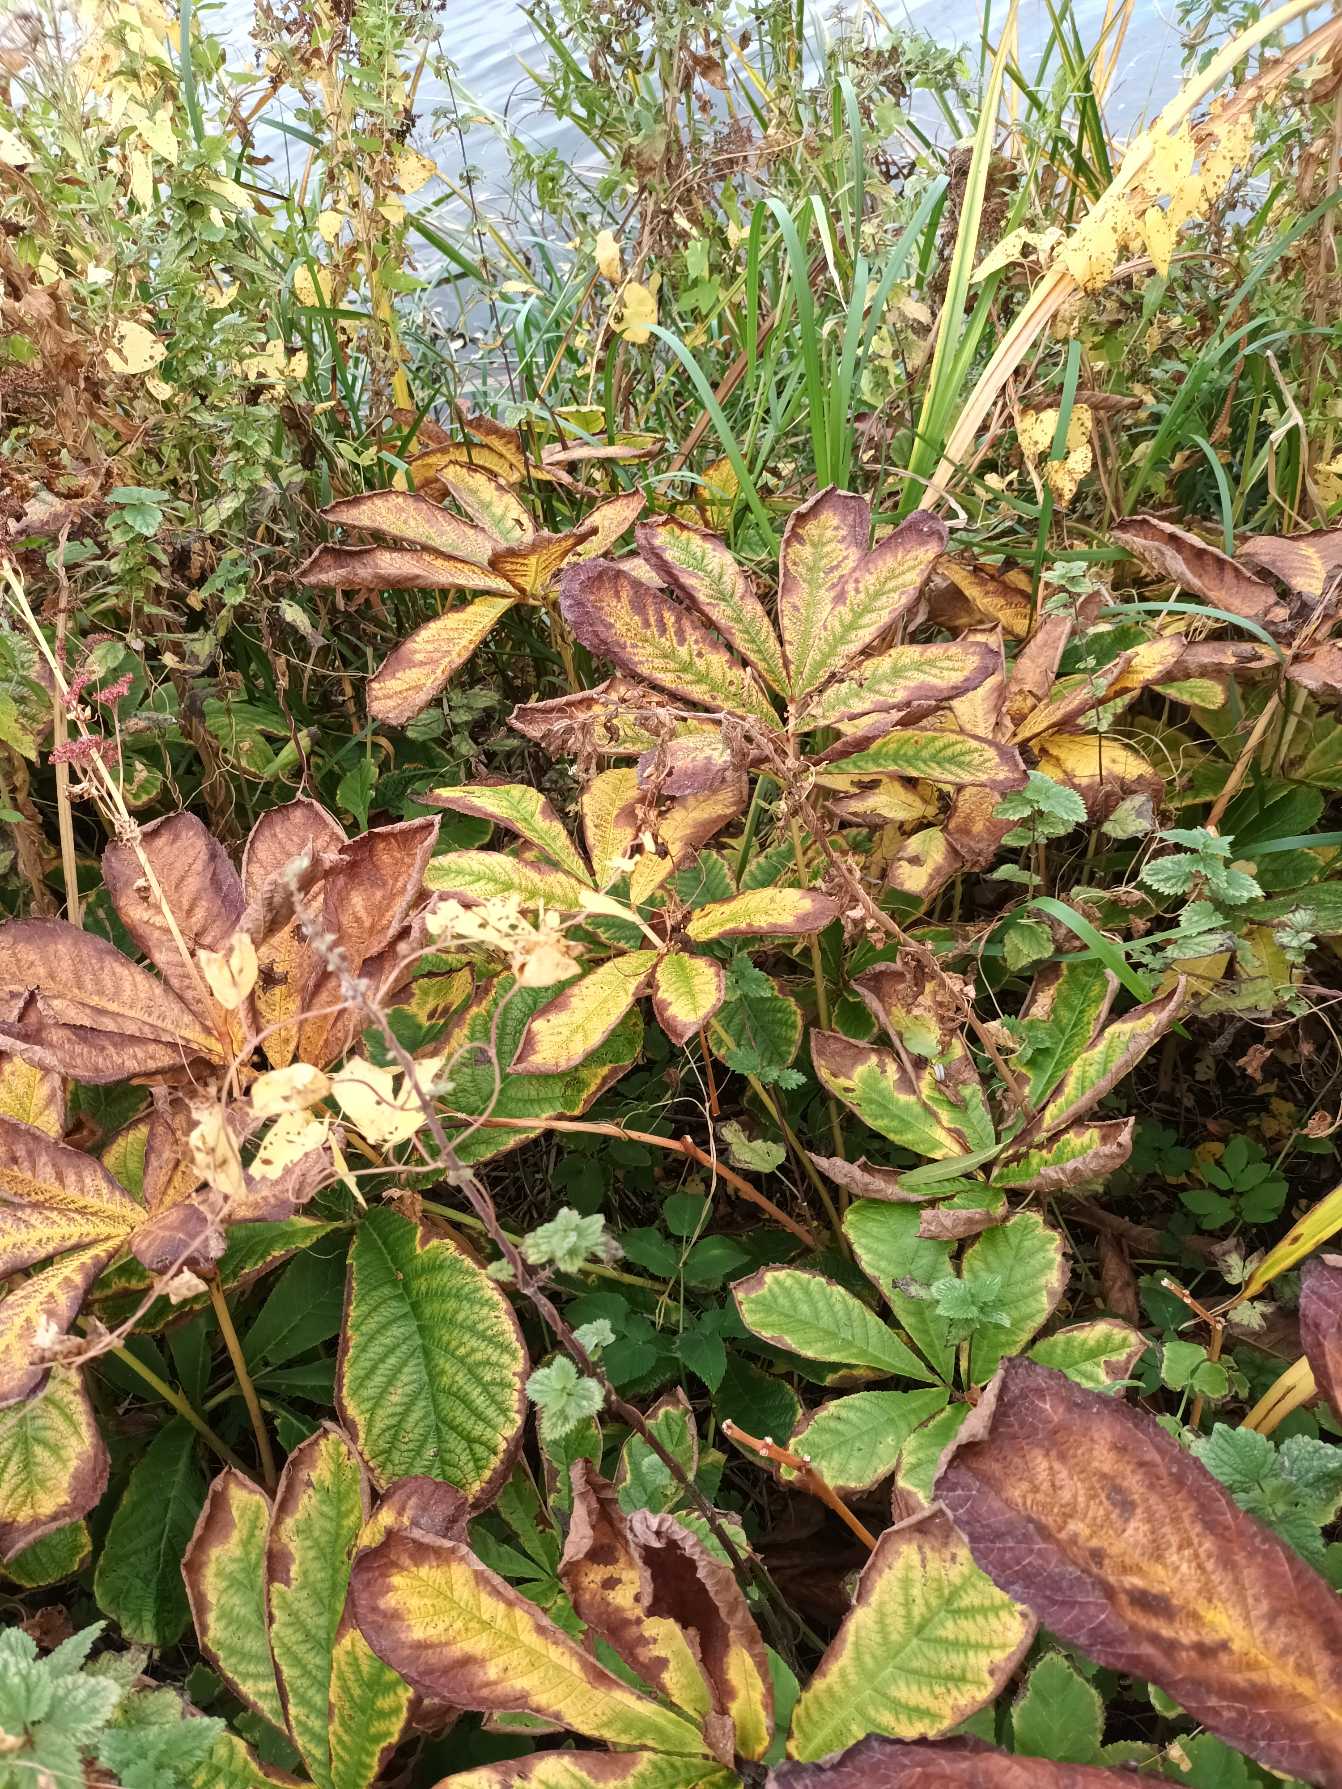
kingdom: Plantae
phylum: Tracheophyta
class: Magnoliopsida
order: Saxifragales
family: Saxifragaceae
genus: Rodgersia
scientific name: Rodgersia pinnata
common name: Finnet bronzeblad
